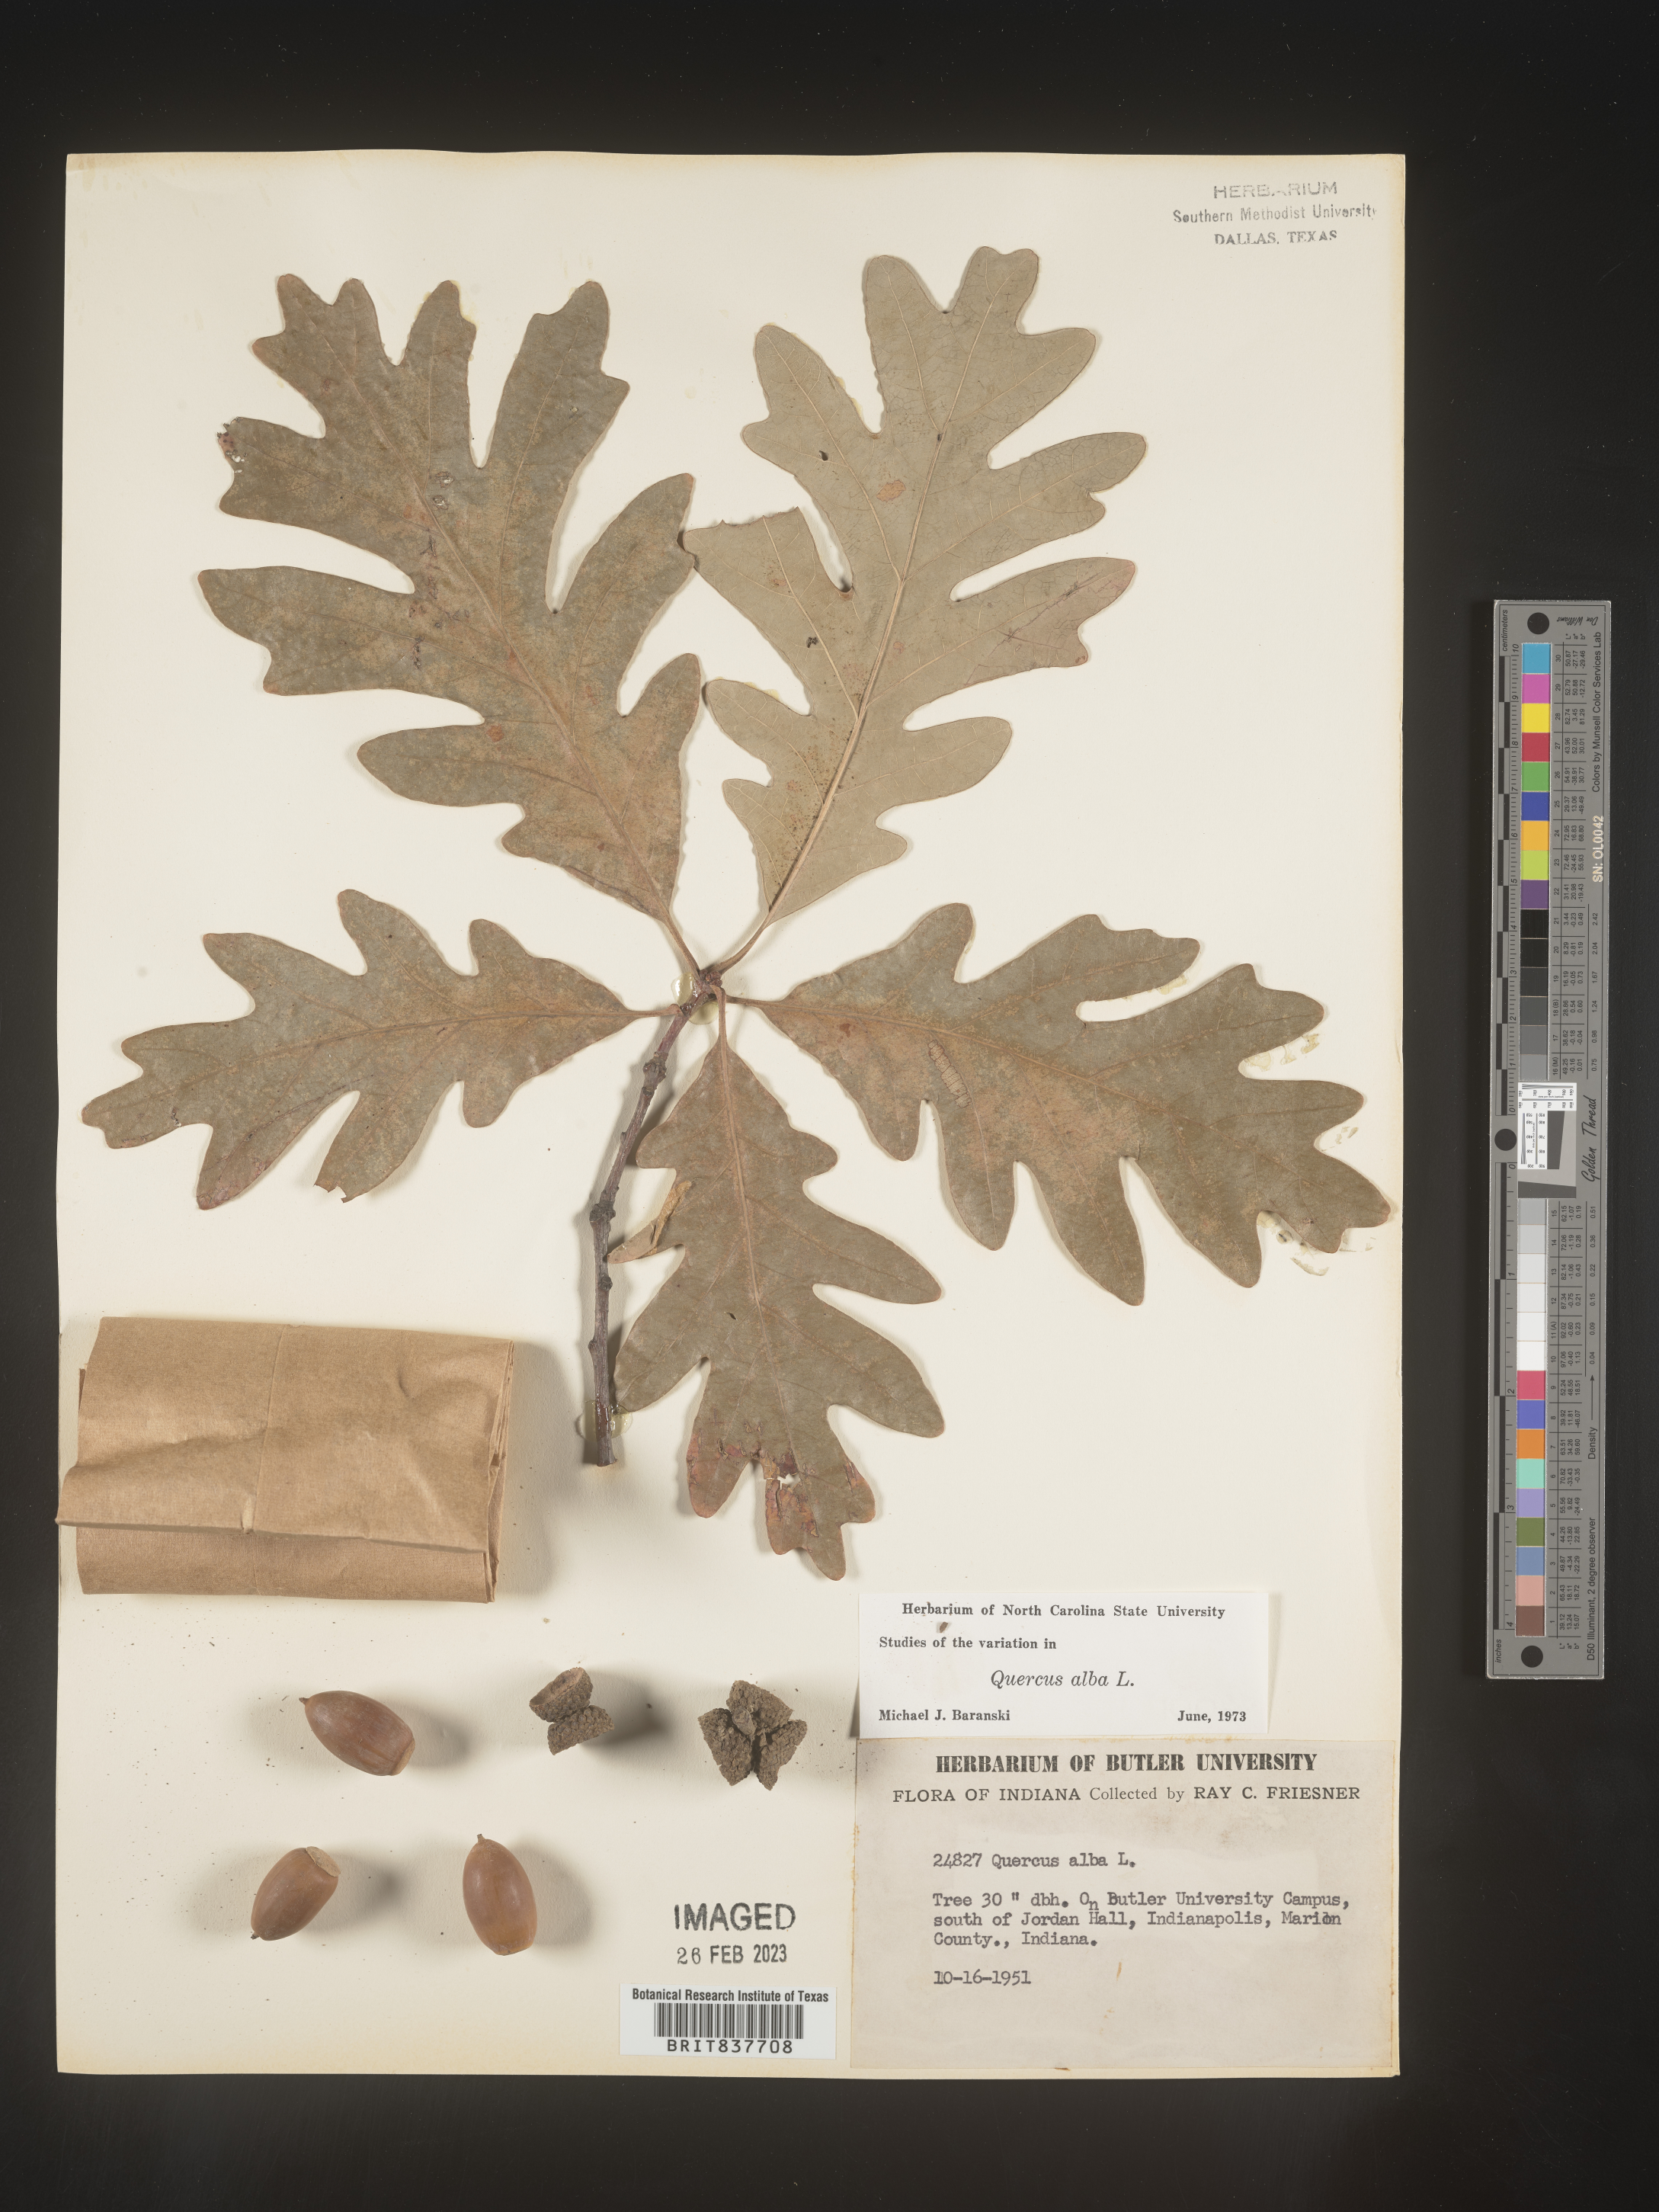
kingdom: Plantae
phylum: Tracheophyta
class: Magnoliopsida
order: Fagales
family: Fagaceae
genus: Quercus
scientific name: Quercus alba
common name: White oak
